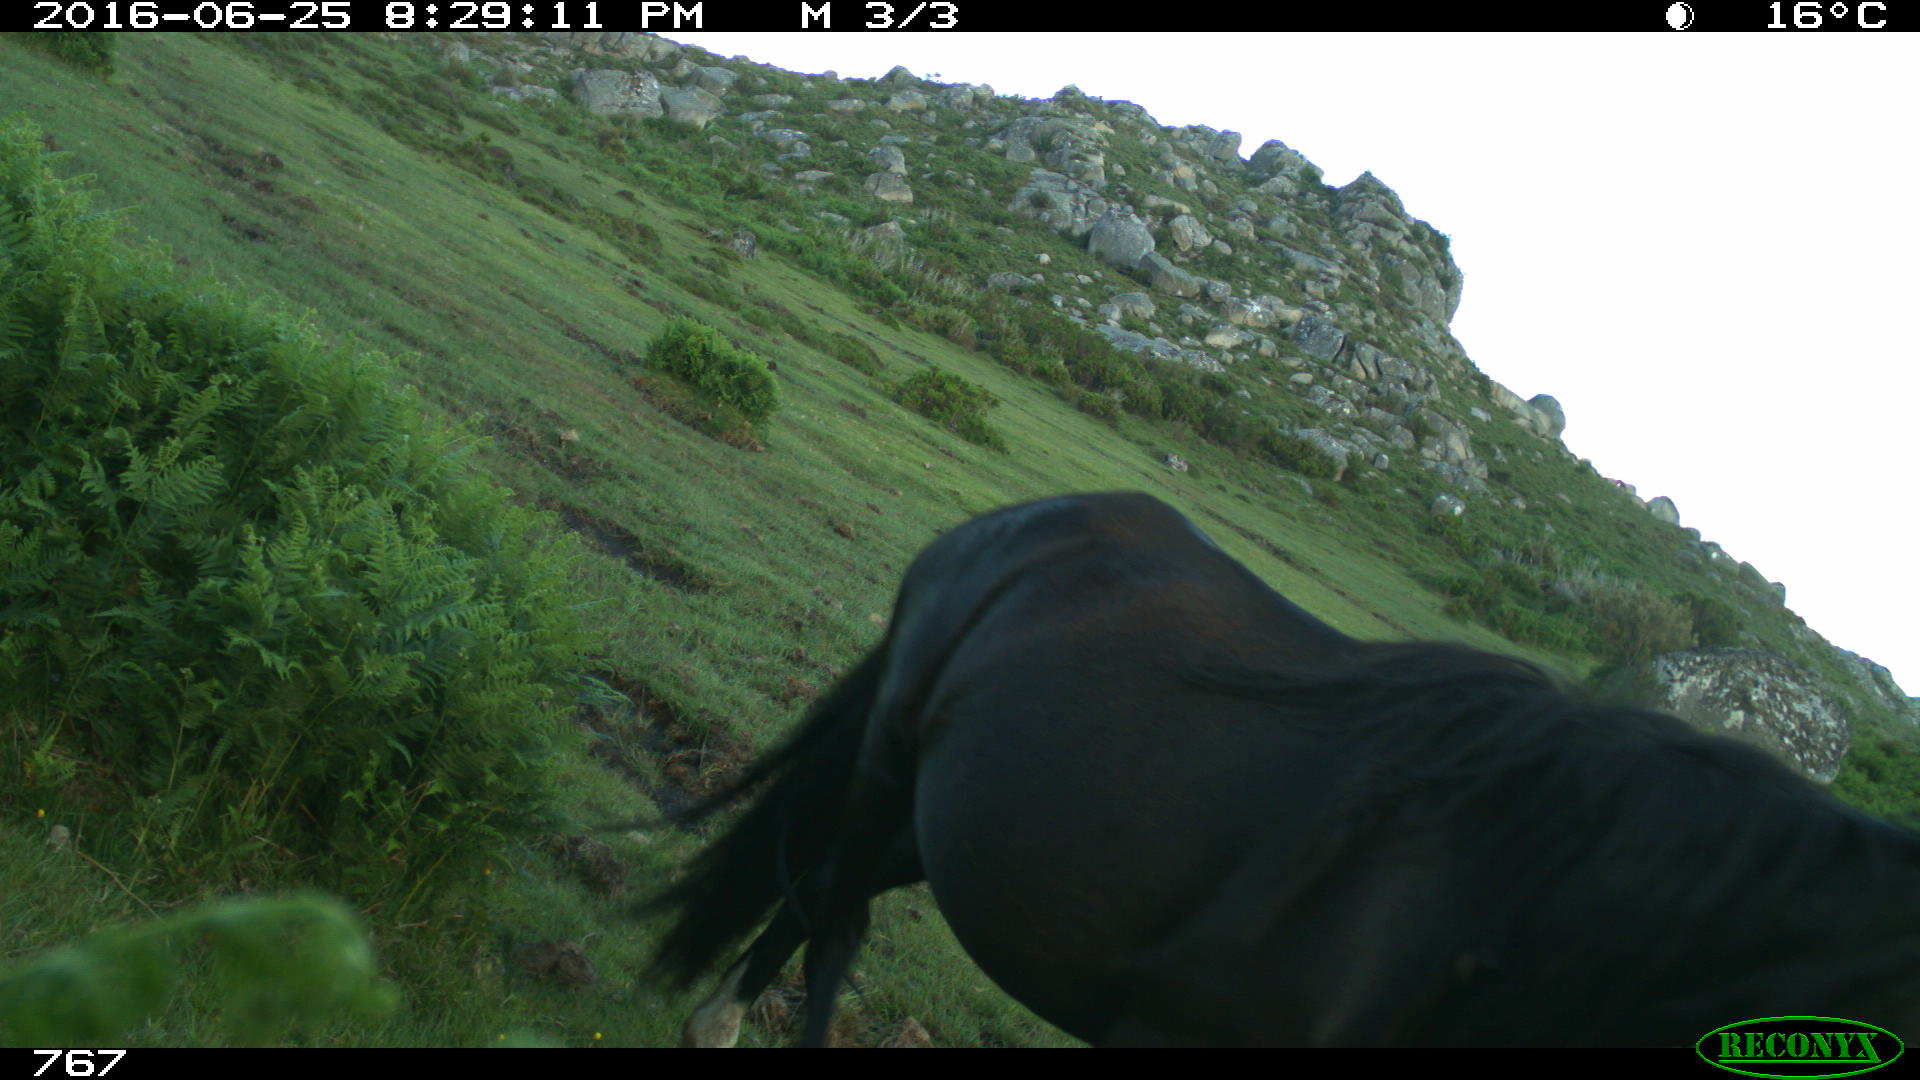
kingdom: Animalia
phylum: Chordata
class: Mammalia
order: Perissodactyla
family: Equidae
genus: Equus
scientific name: Equus caballus
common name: Horse
